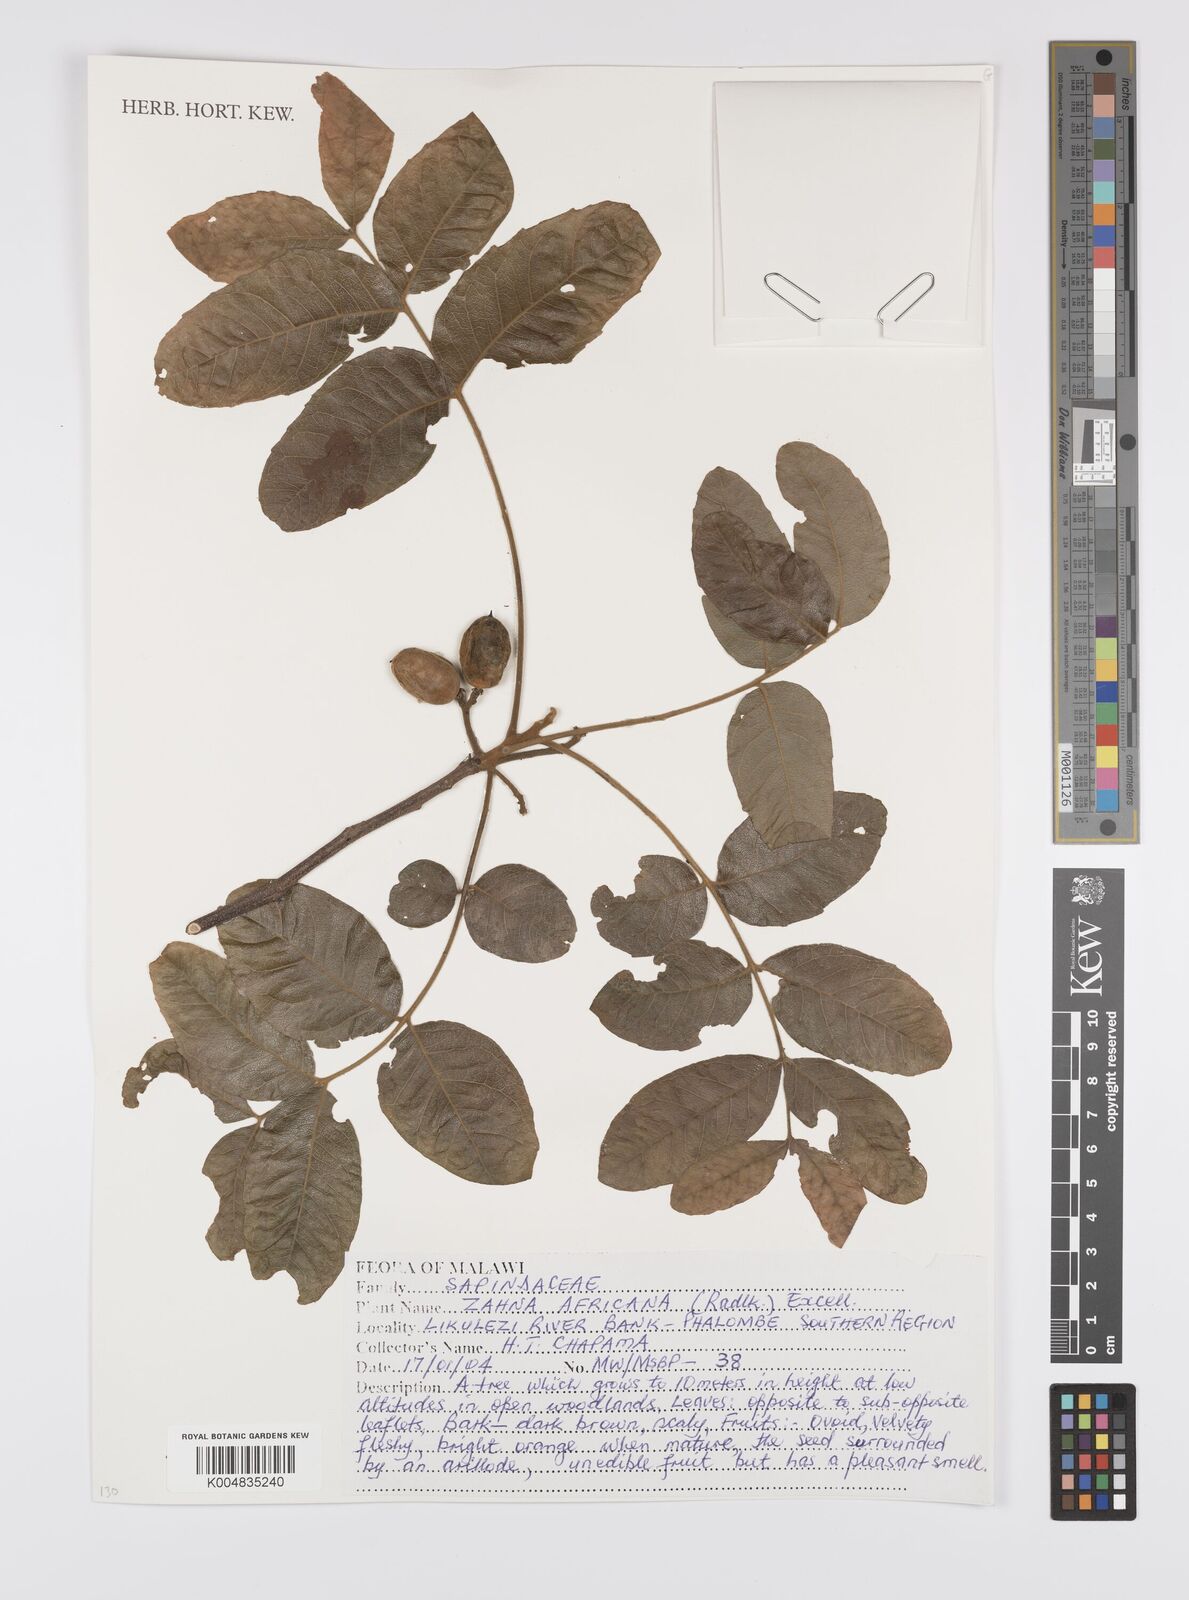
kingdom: Plantae
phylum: Tracheophyta
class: Magnoliopsida
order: Sapindales
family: Sapindaceae
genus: Zanha
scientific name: Zanha africana
